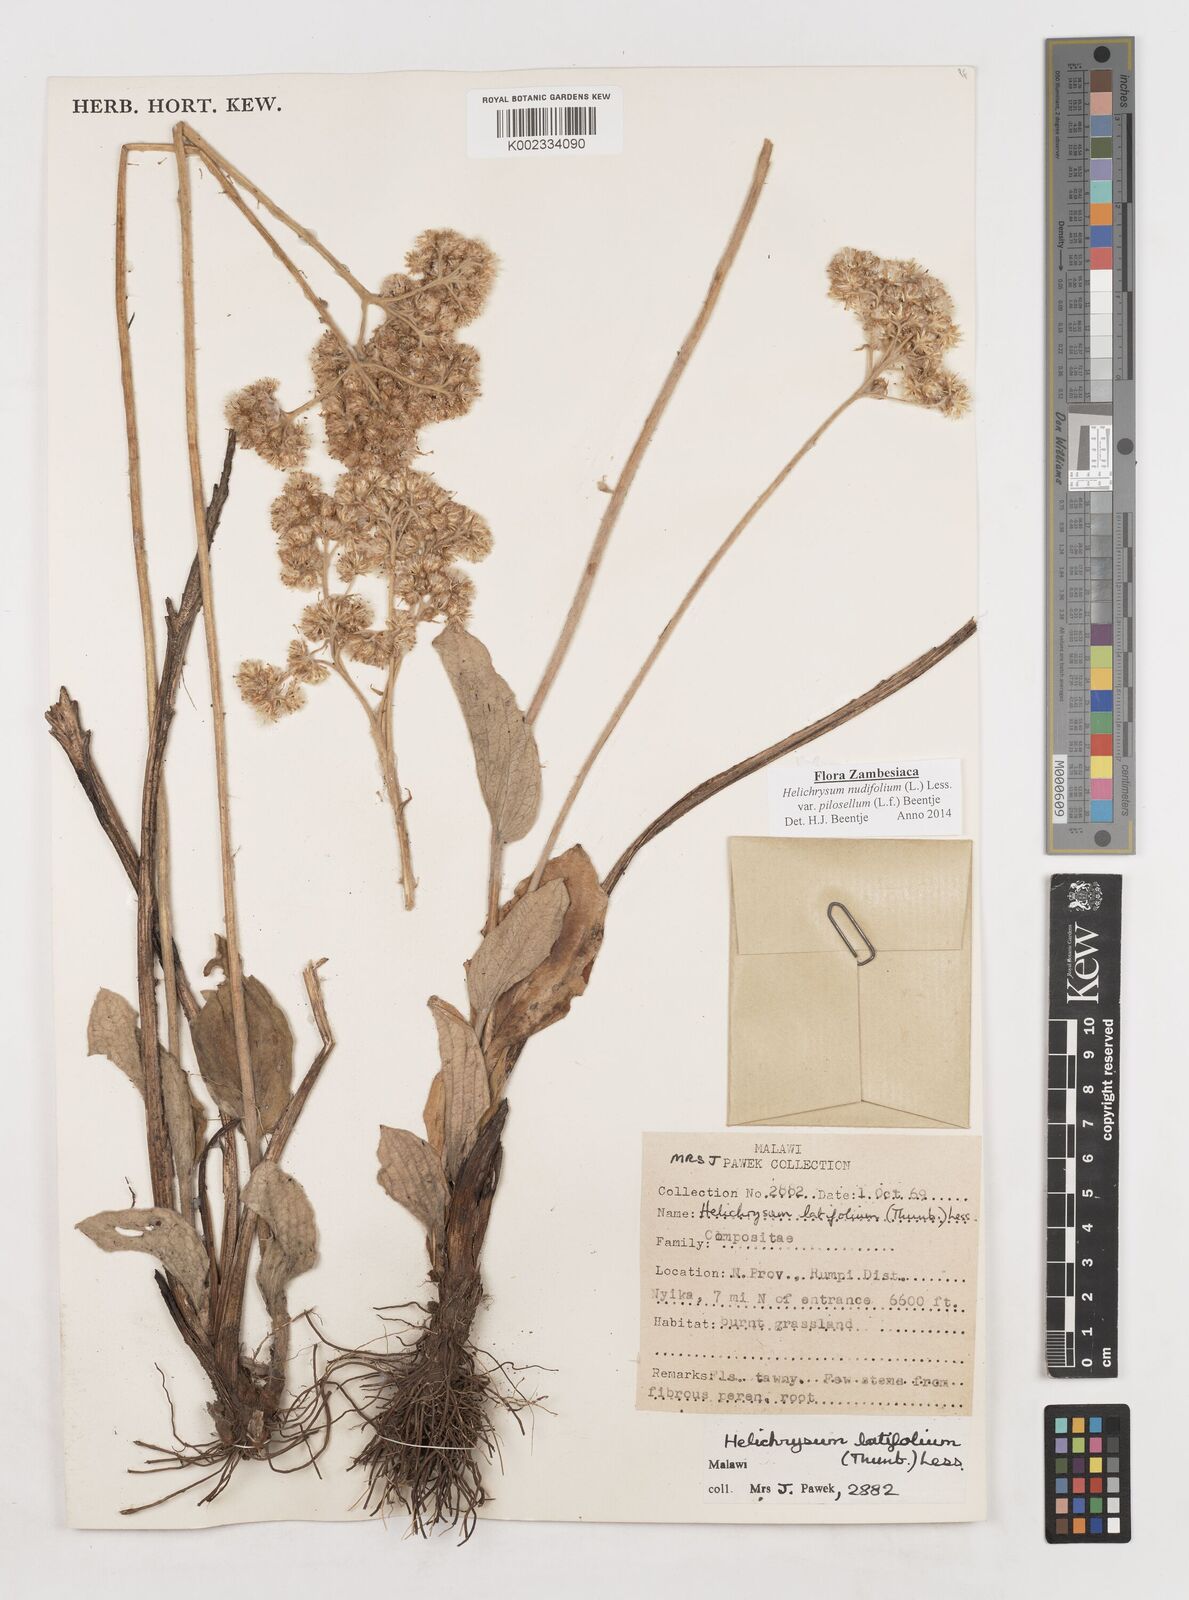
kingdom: Plantae
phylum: Tracheophyta
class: Magnoliopsida
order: Asterales
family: Asteraceae
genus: Helichrysum
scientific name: Helichrysum nudifolium
